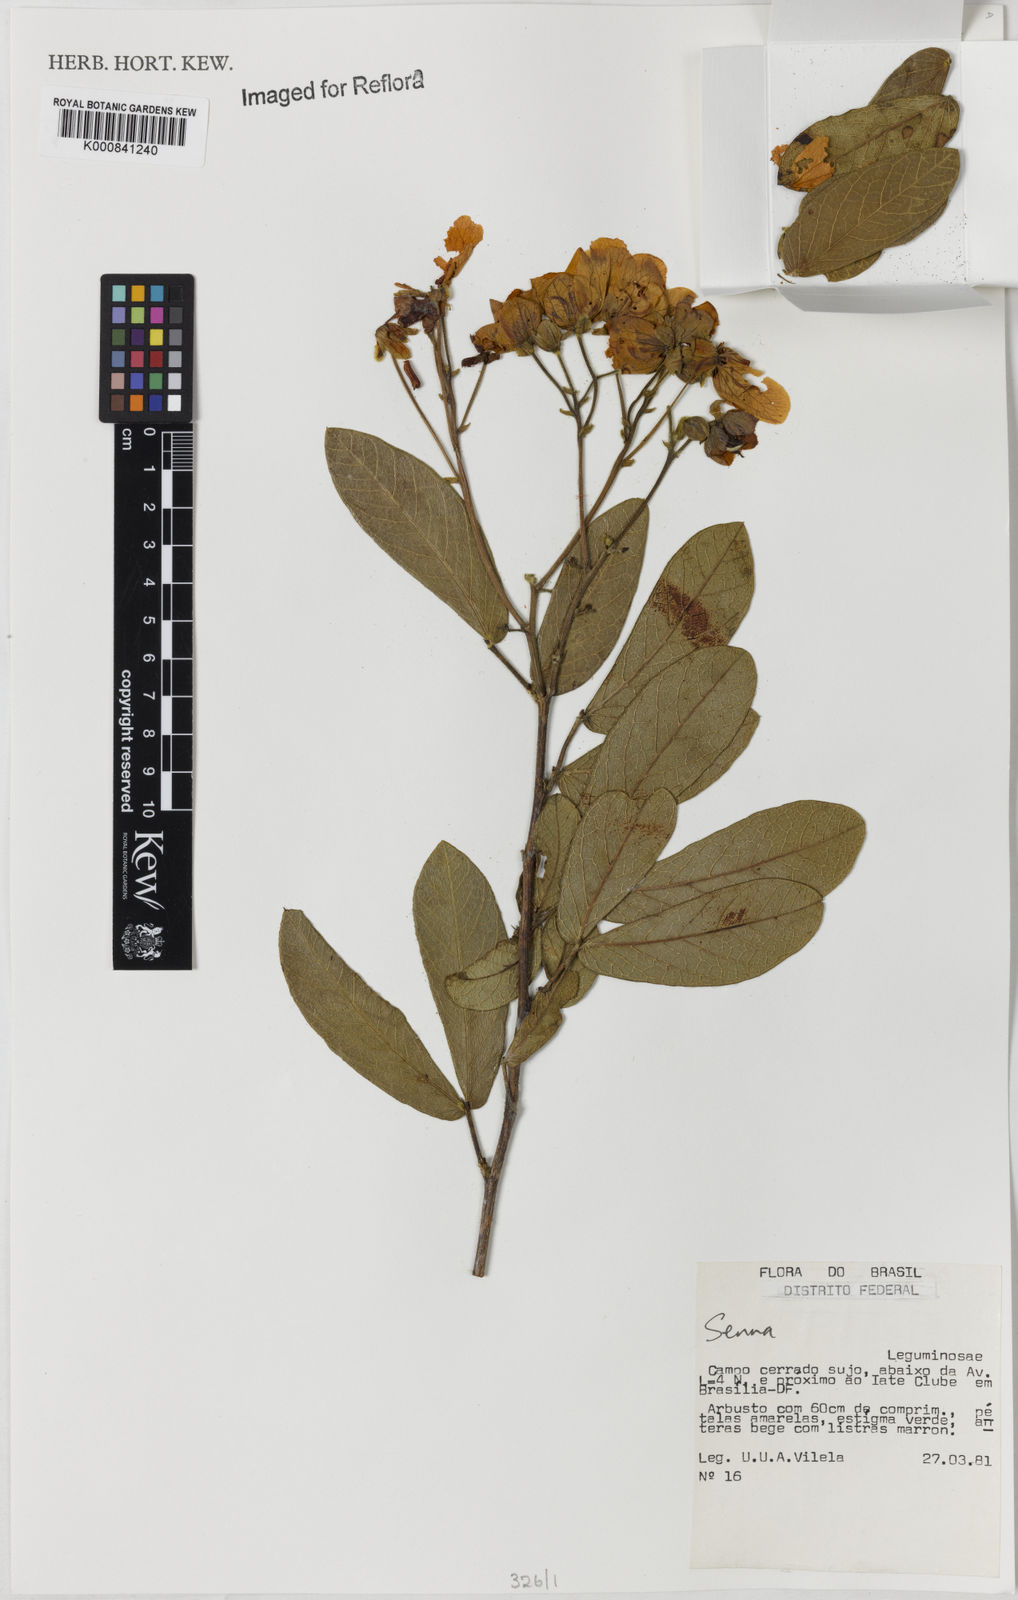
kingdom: Plantae
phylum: Tracheophyta
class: Magnoliopsida
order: Fabales
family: Fabaceae
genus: Senna
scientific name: Senna rugosa
